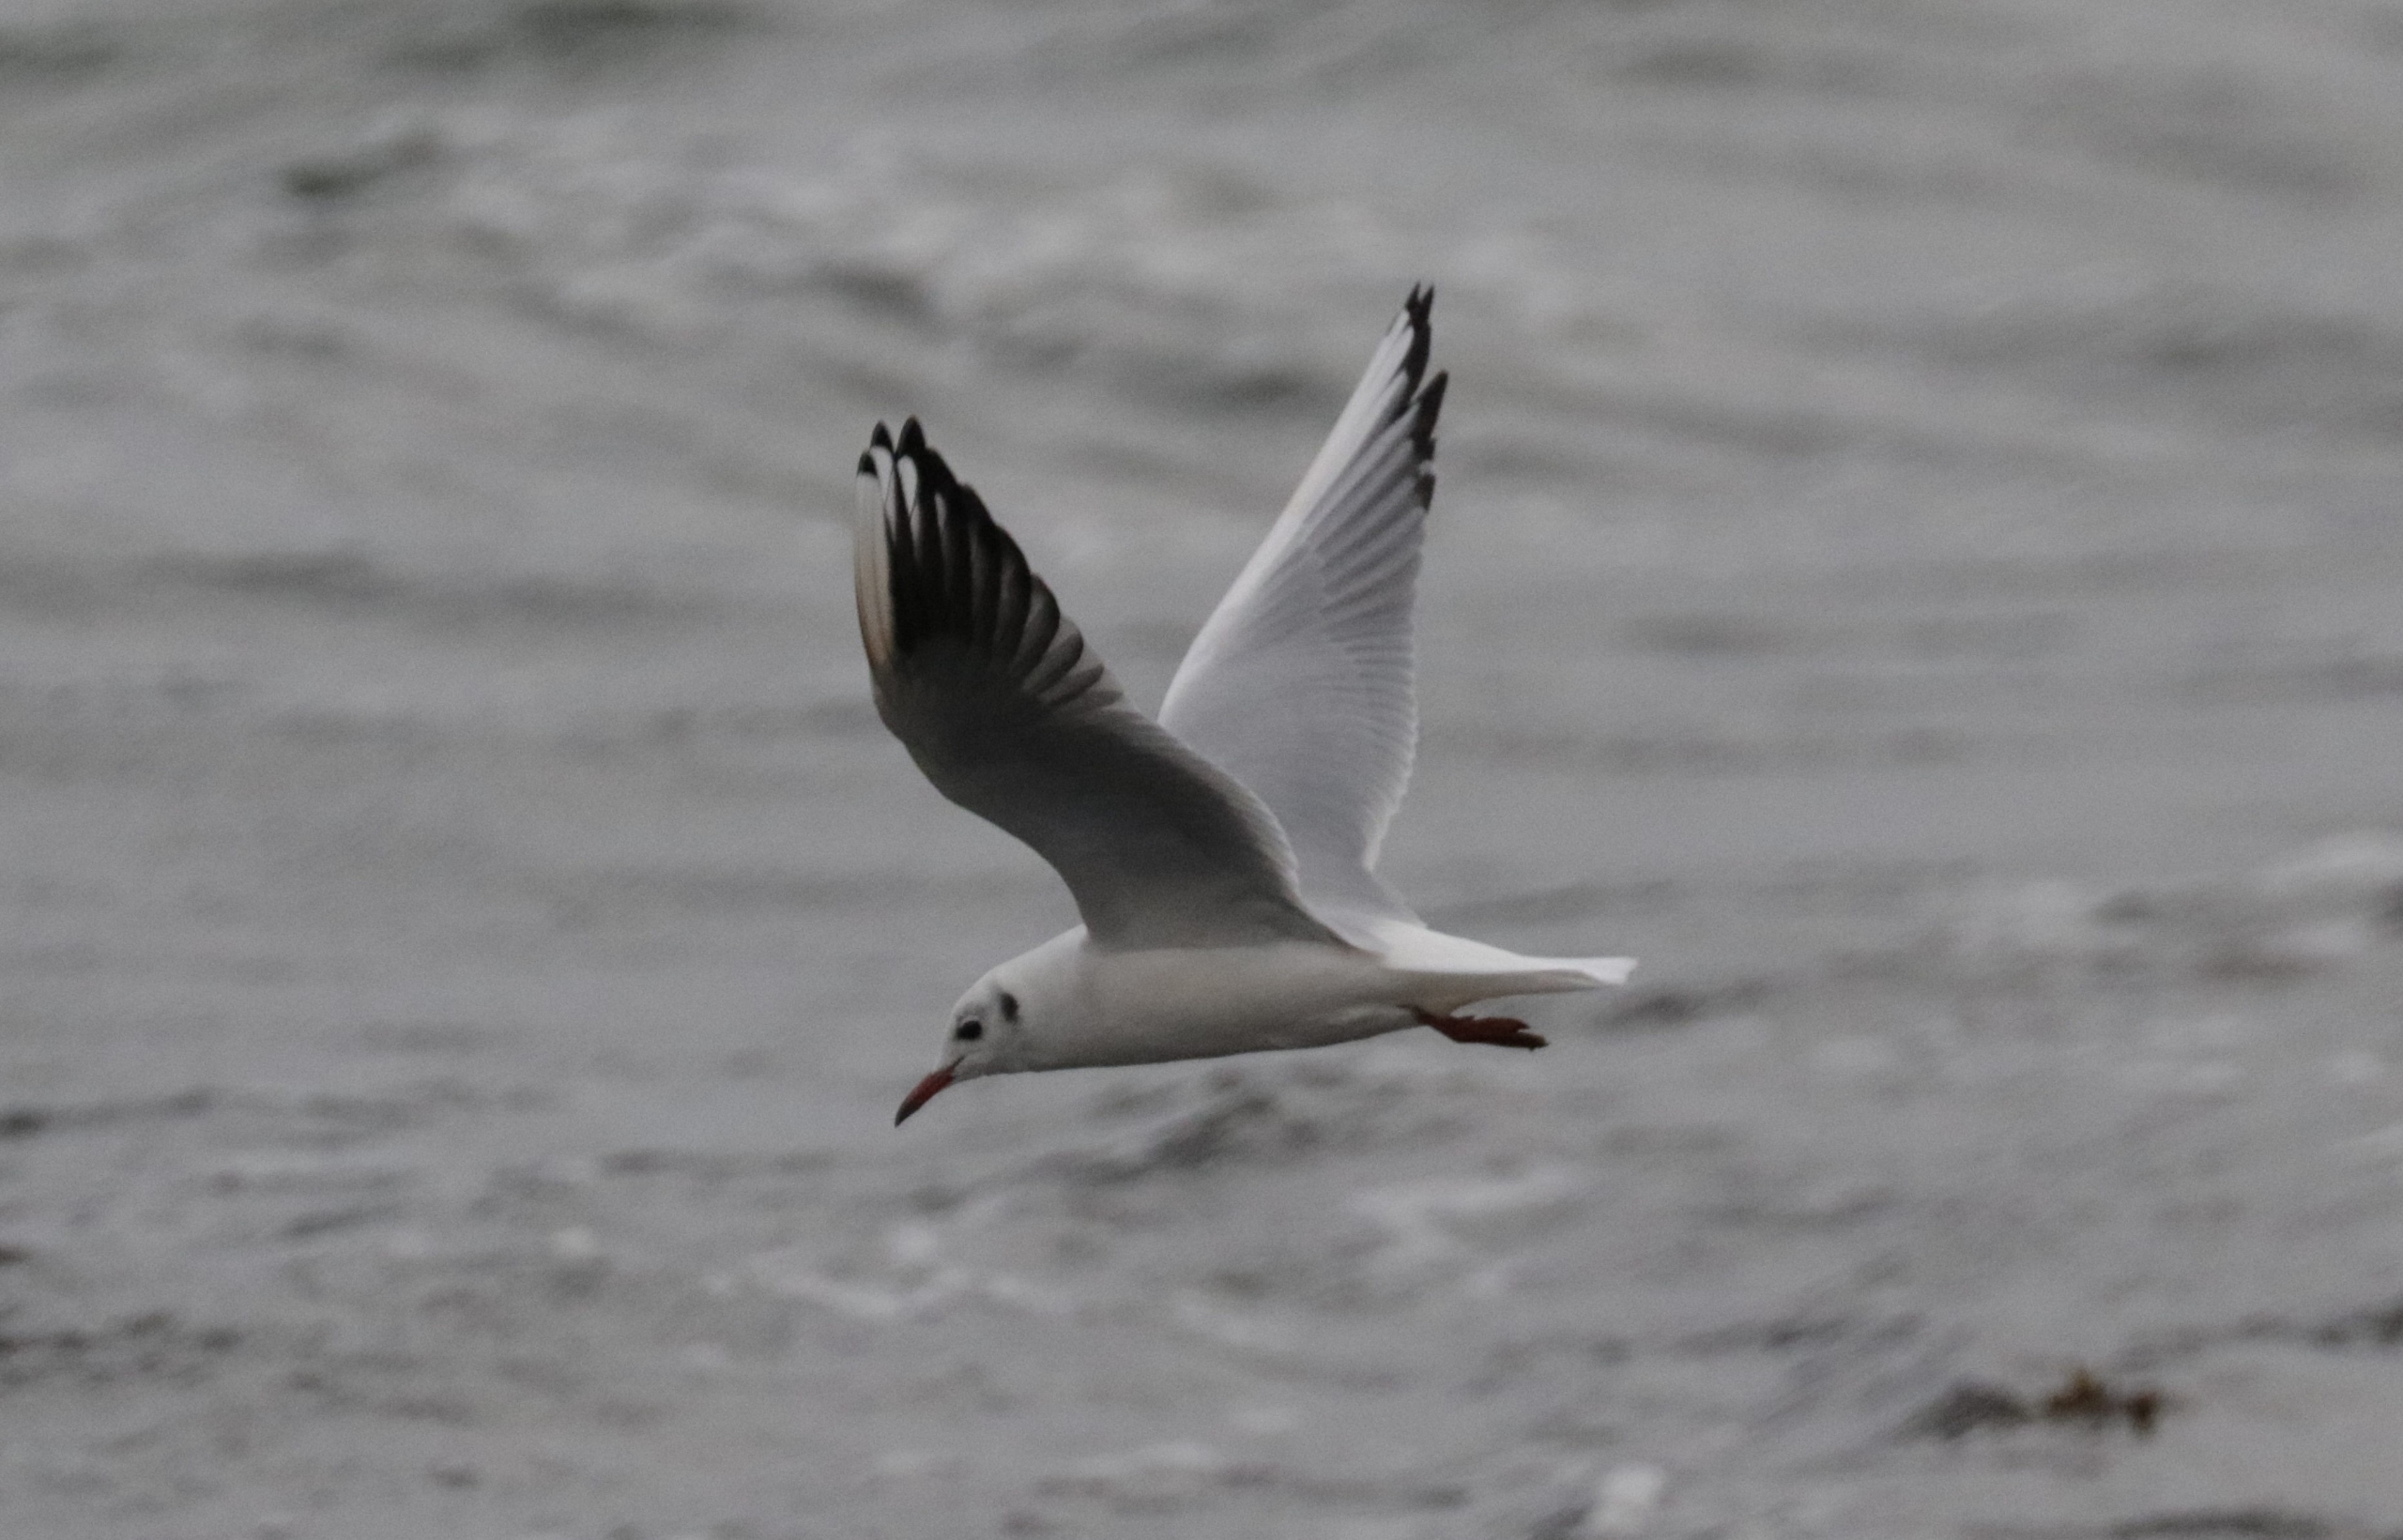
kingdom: Animalia
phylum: Chordata
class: Aves
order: Charadriiformes
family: Laridae
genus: Chroicocephalus
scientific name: Chroicocephalus ridibundus
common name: Hættemåge
